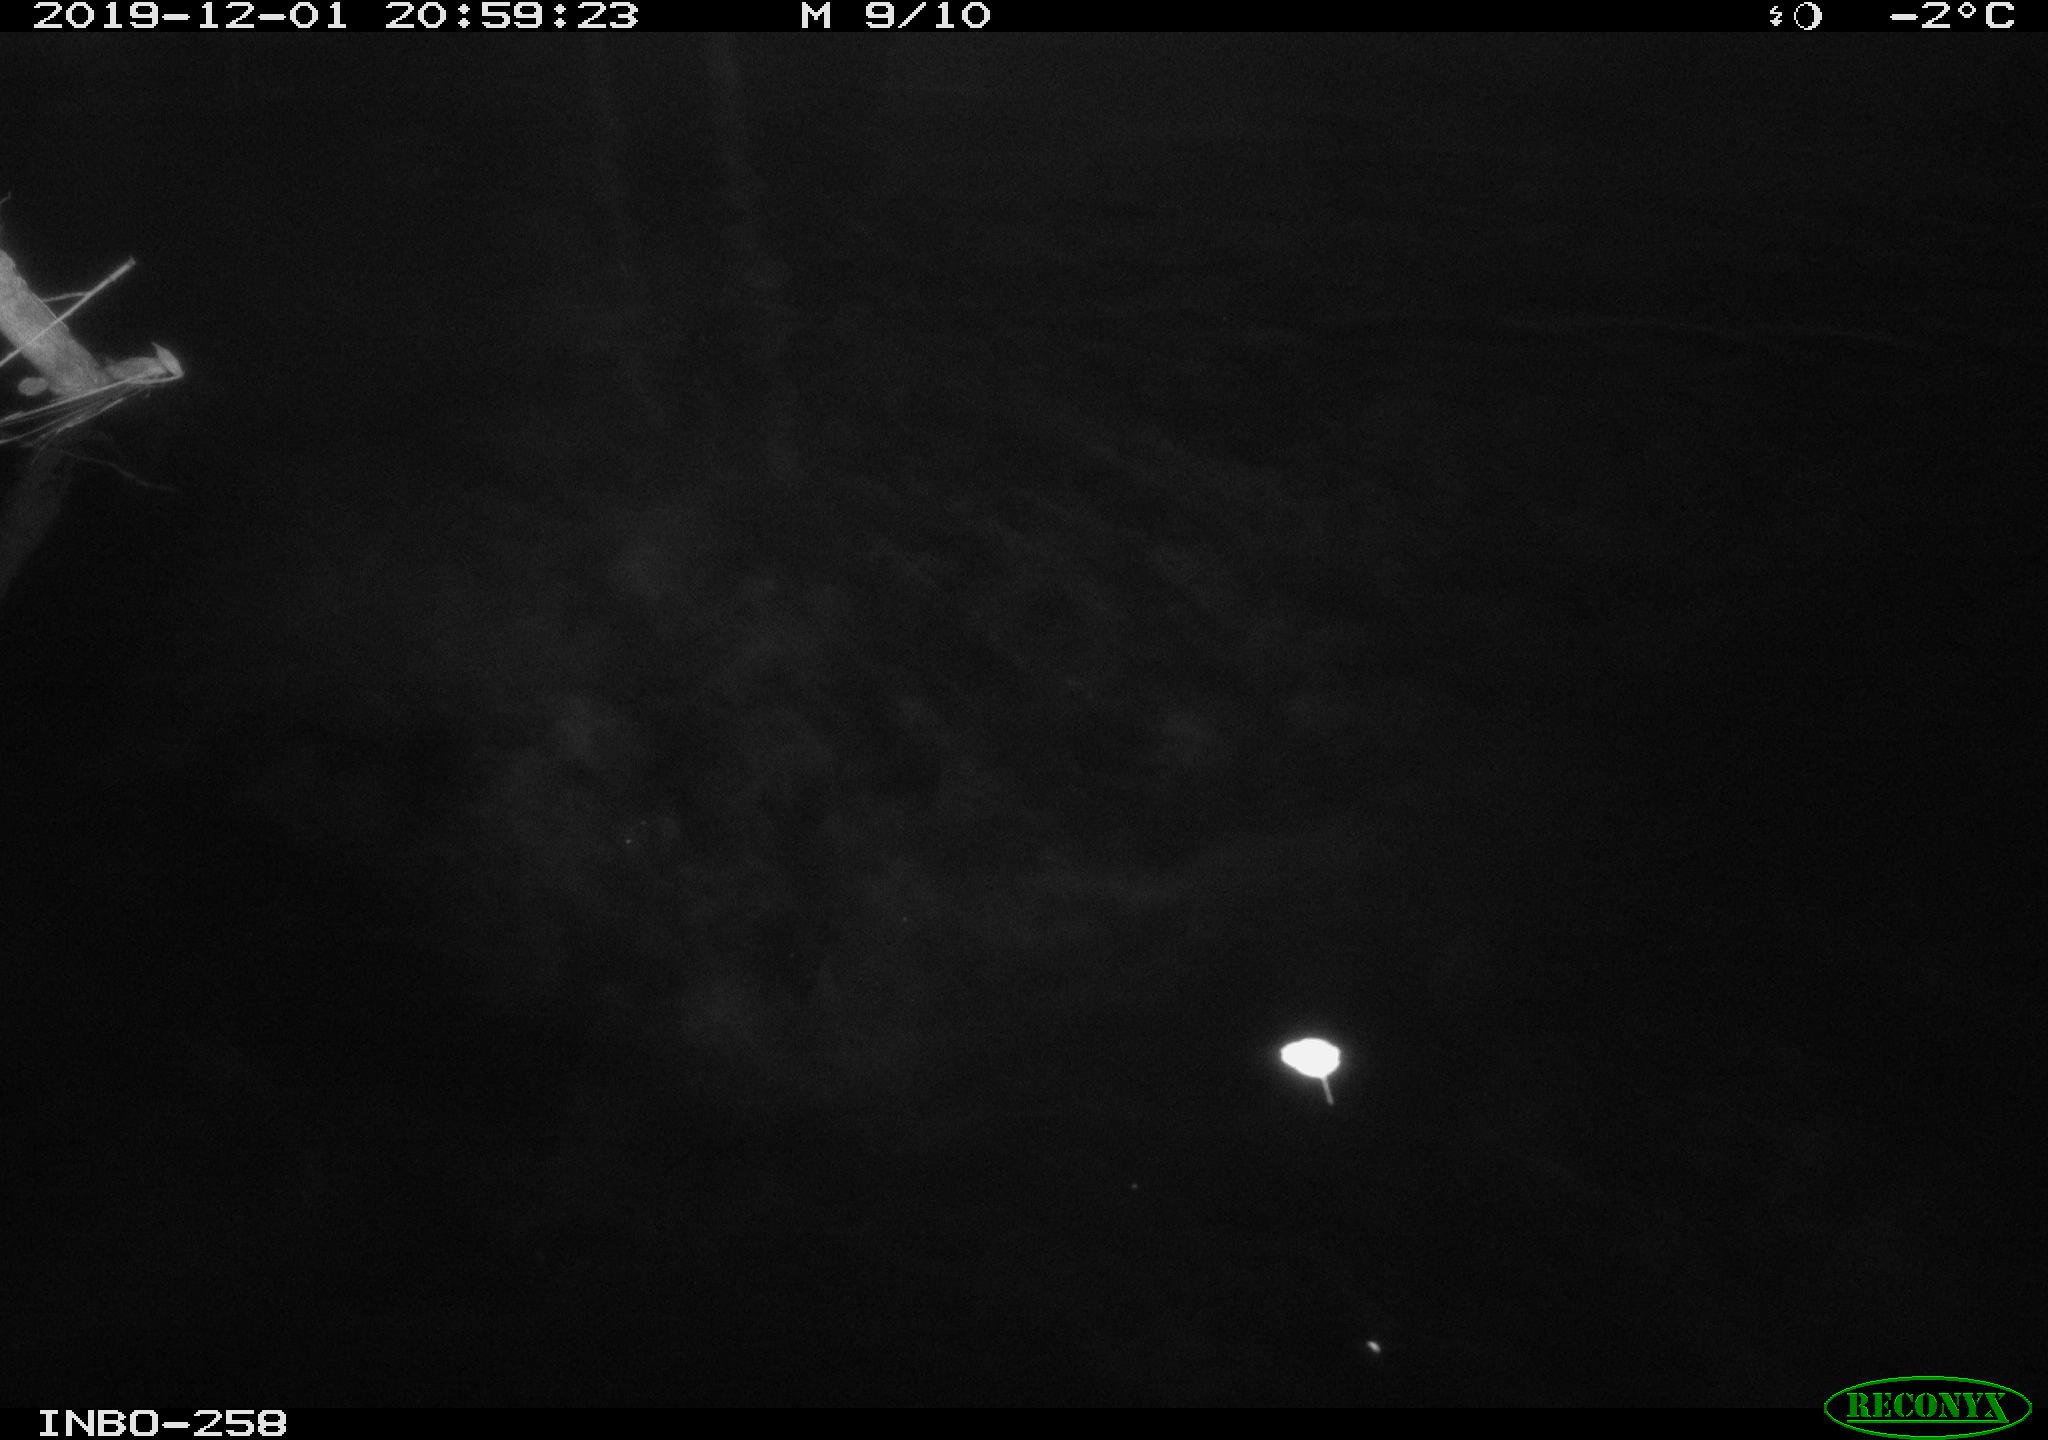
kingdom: Animalia
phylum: Chordata
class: Aves
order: Anseriformes
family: Anatidae
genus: Anas
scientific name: Anas platyrhynchos
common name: Mallard
